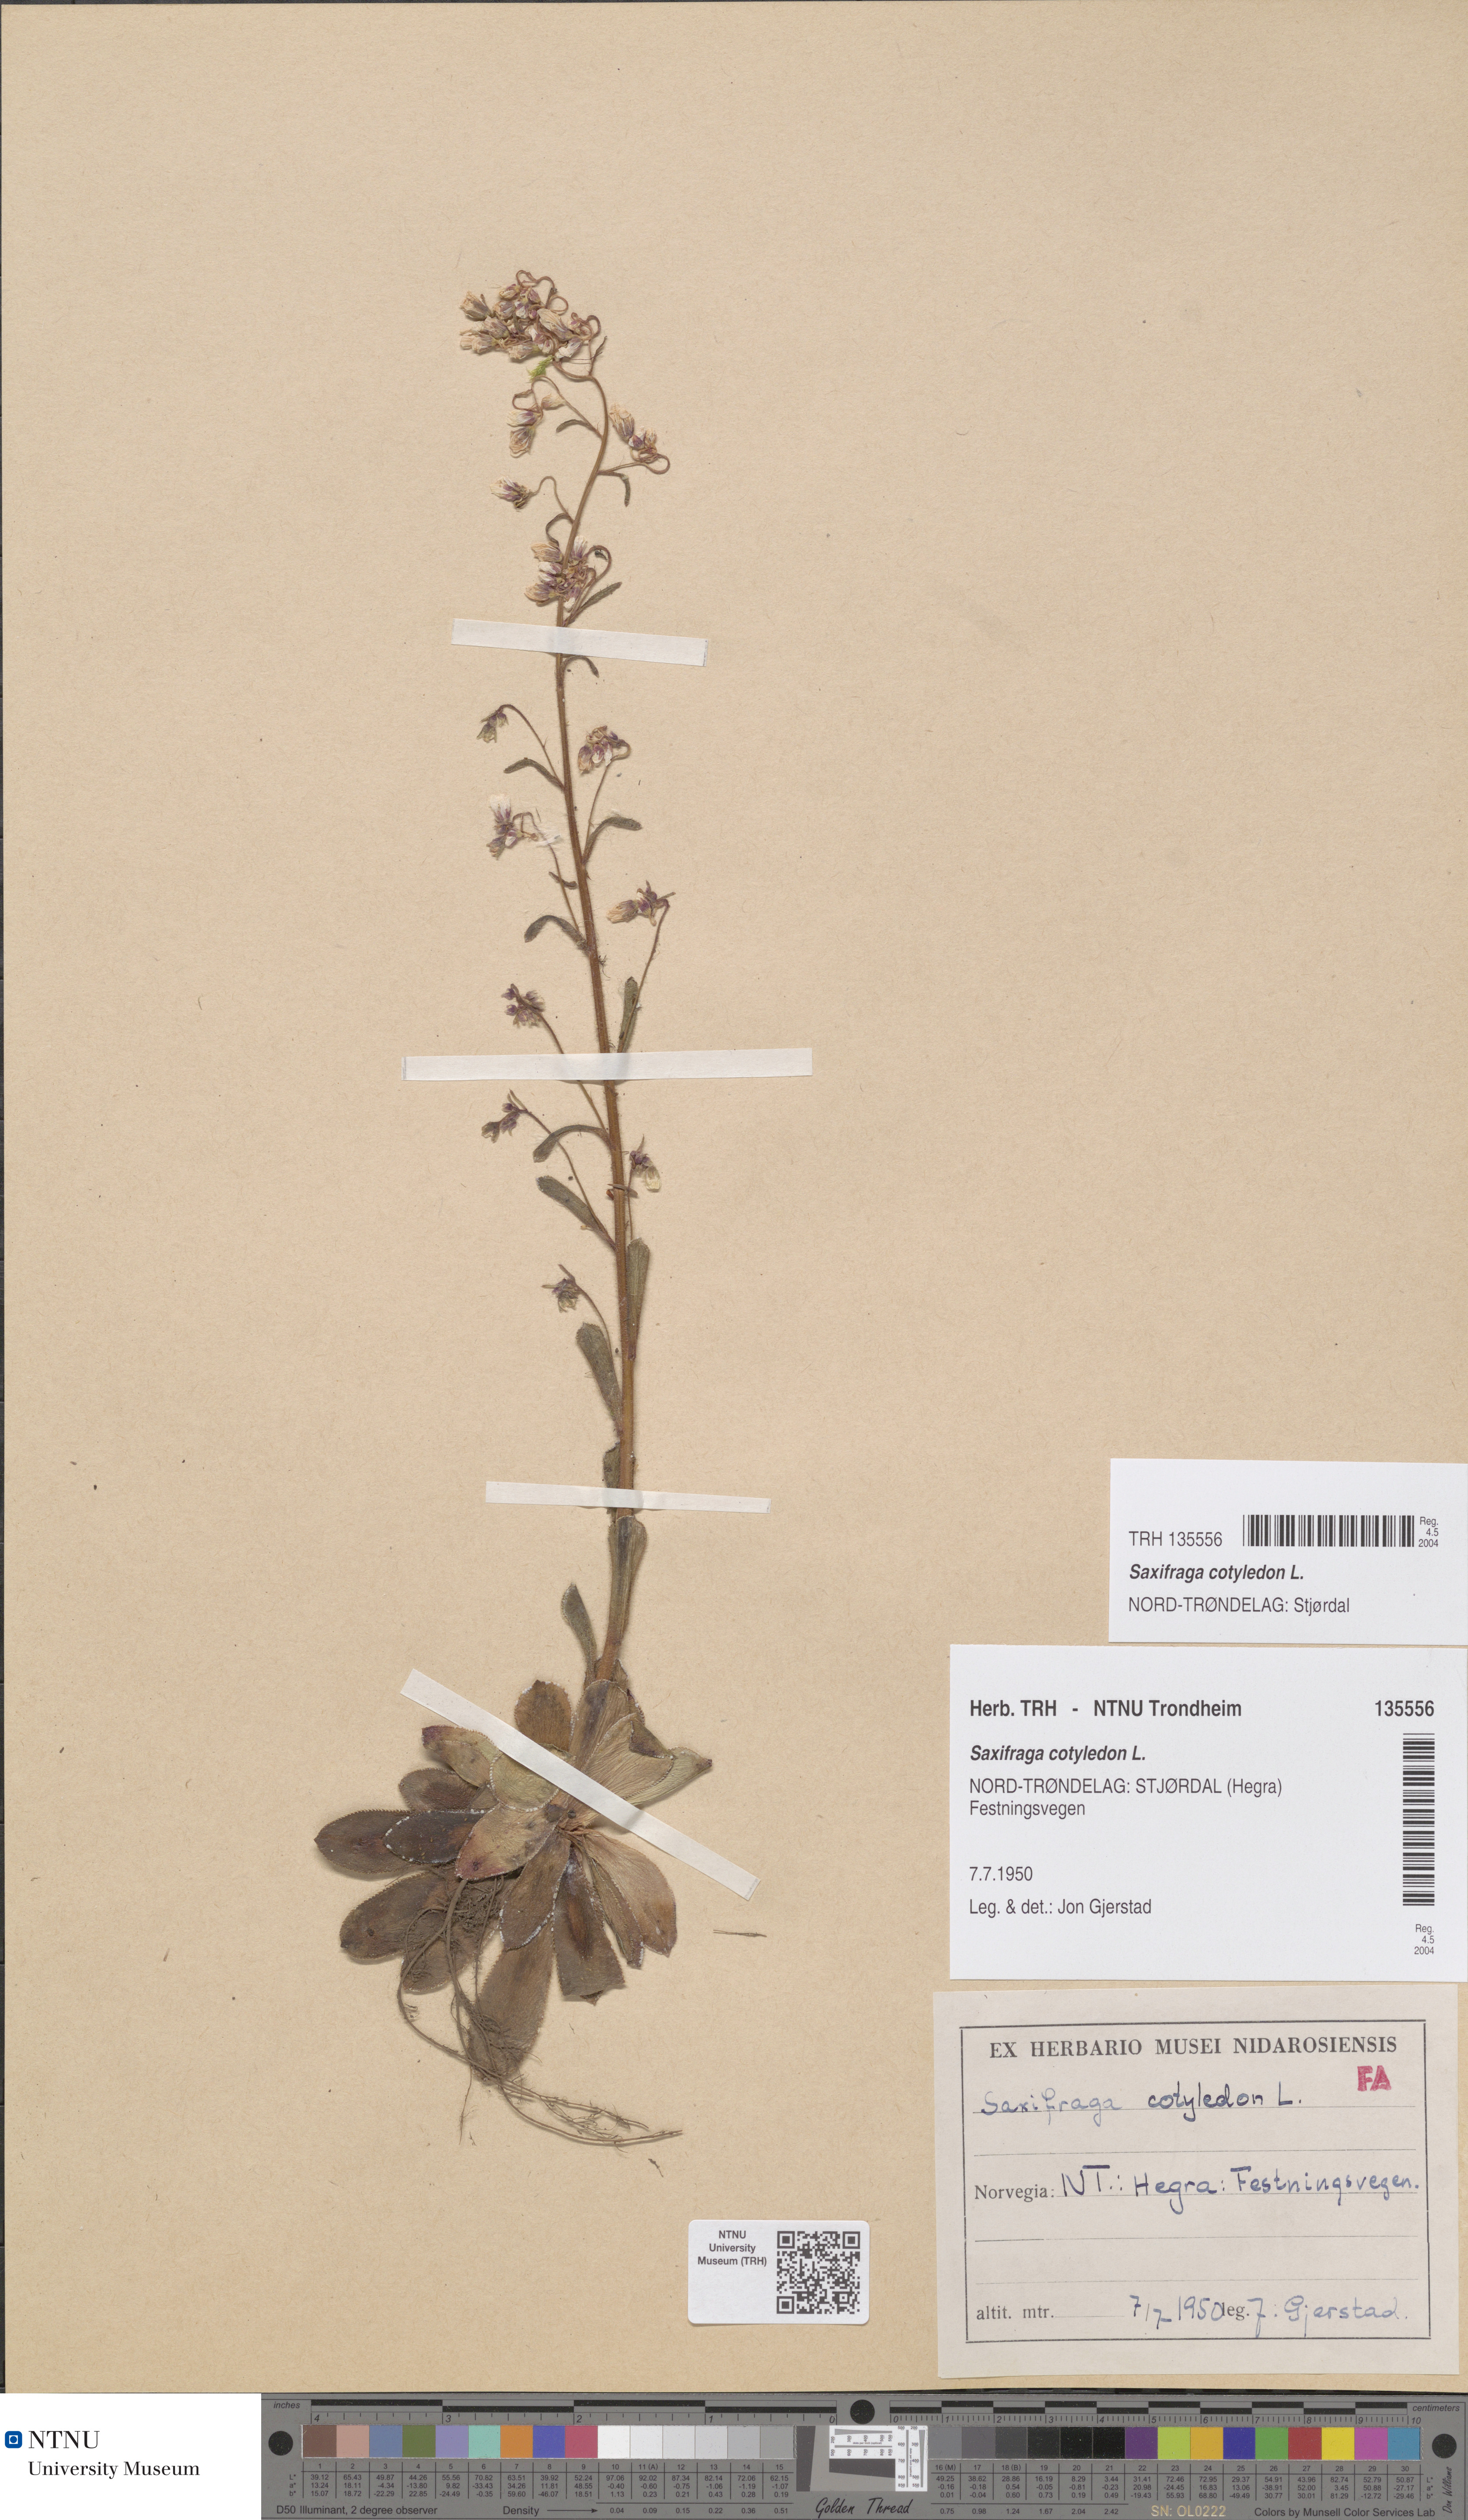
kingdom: Plantae
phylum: Tracheophyta
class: Magnoliopsida
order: Saxifragales
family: Saxifragaceae
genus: Saxifraga
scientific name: Saxifraga cotyledon
